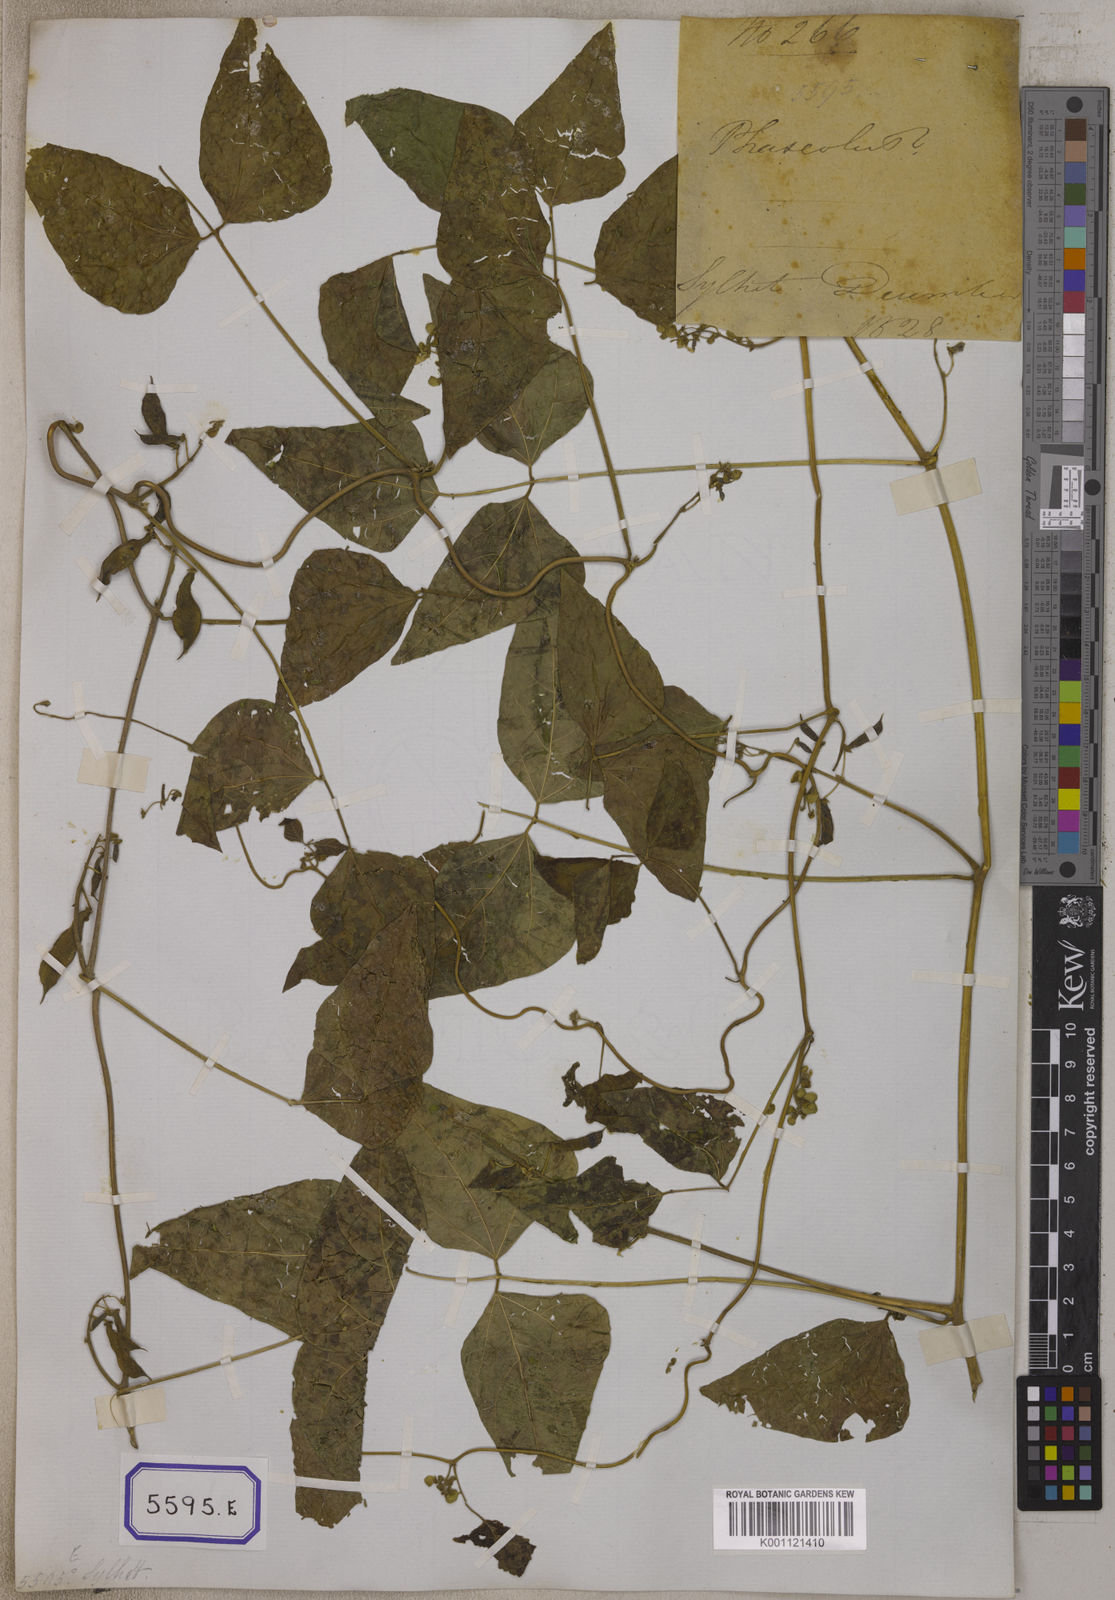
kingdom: Plantae
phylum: Tracheophyta
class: Magnoliopsida
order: Fabales
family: Fabaceae
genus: Phaseolus
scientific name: Phaseolus vulgaris
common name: Bean
